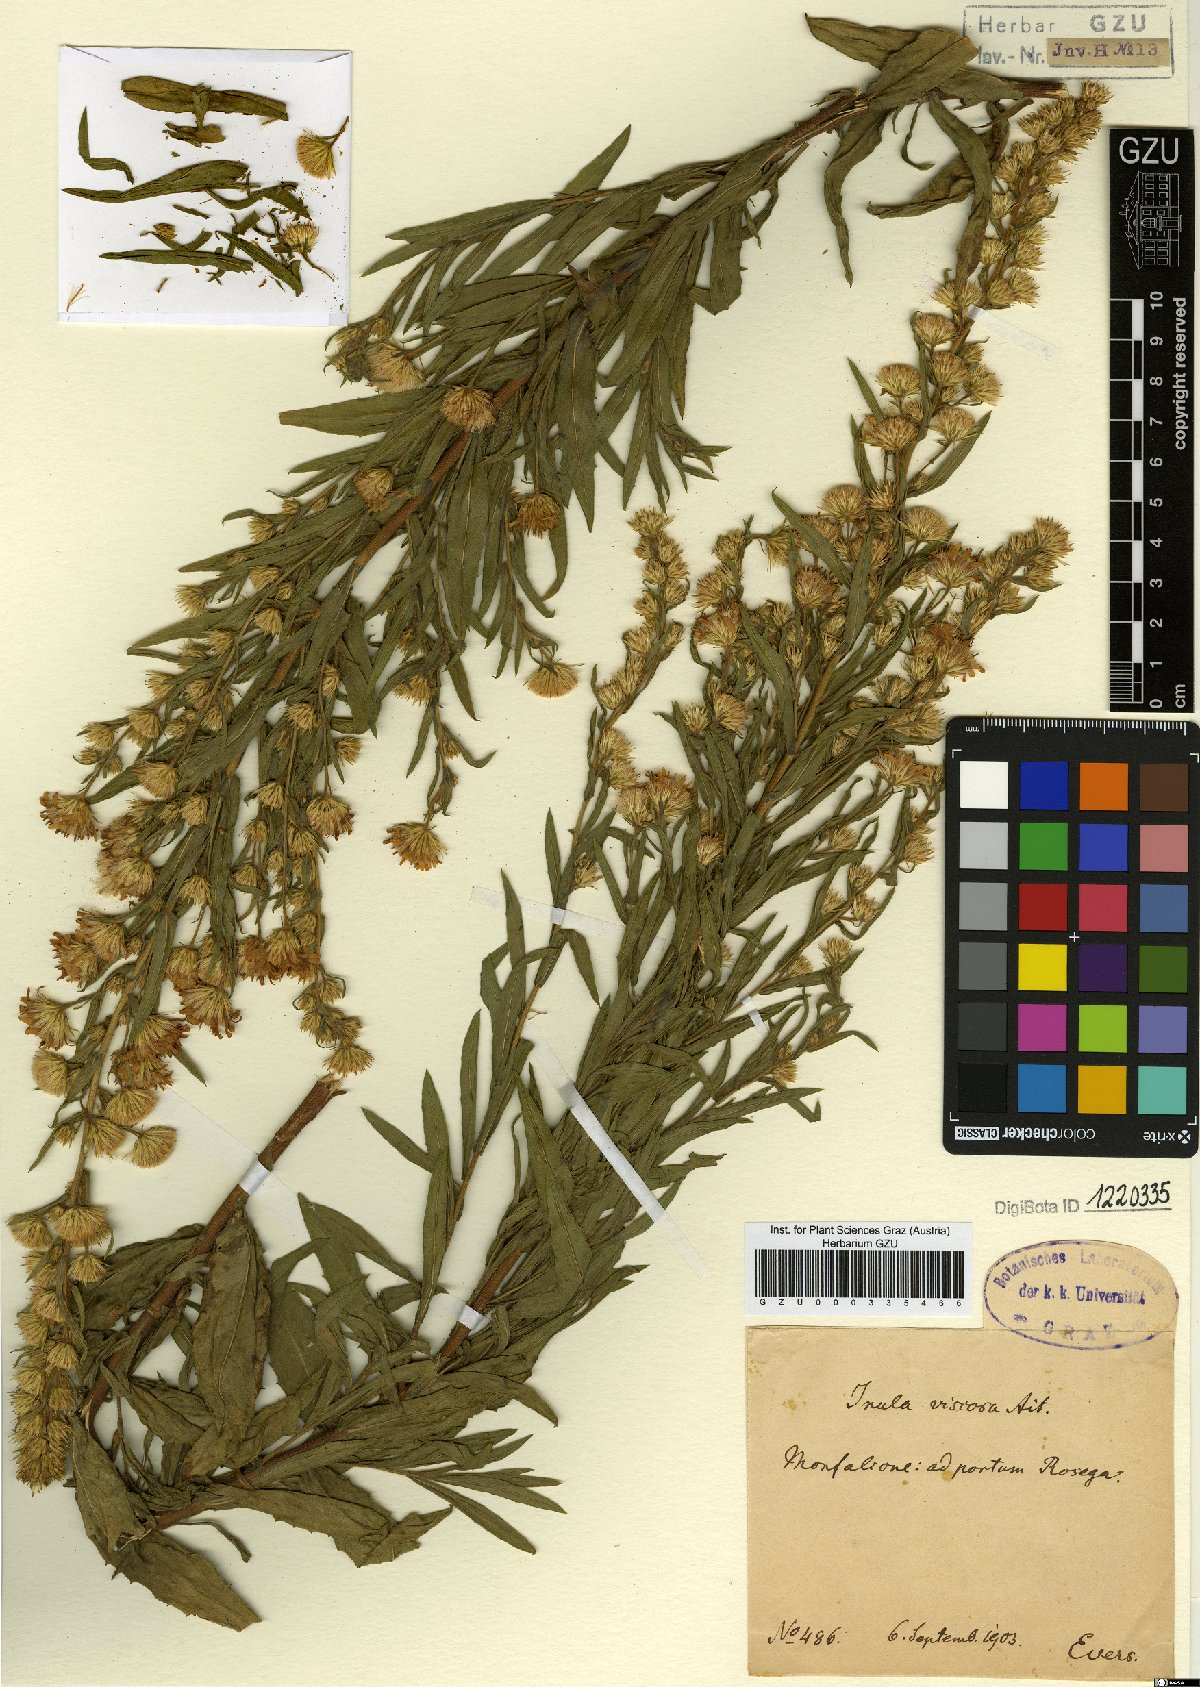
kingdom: Plantae
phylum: Tracheophyta
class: Magnoliopsida
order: Asterales
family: Asteraceae
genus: Dittrichia
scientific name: Dittrichia viscosa
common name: Woody fleabane
